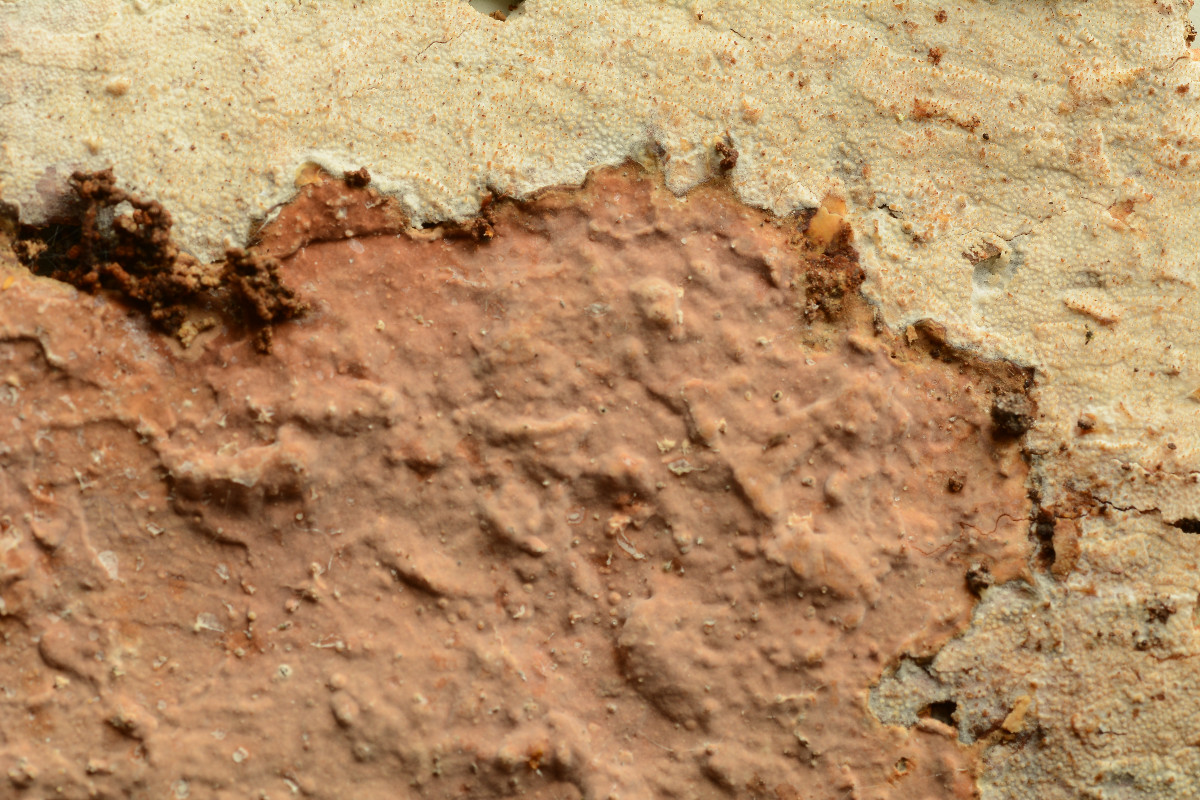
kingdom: Fungi
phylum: Basidiomycota
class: Agaricomycetes
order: Hymenochaetales
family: Rickenellaceae
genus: Resinicium
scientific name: Resinicium bicolor
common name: almindelig vokstand
